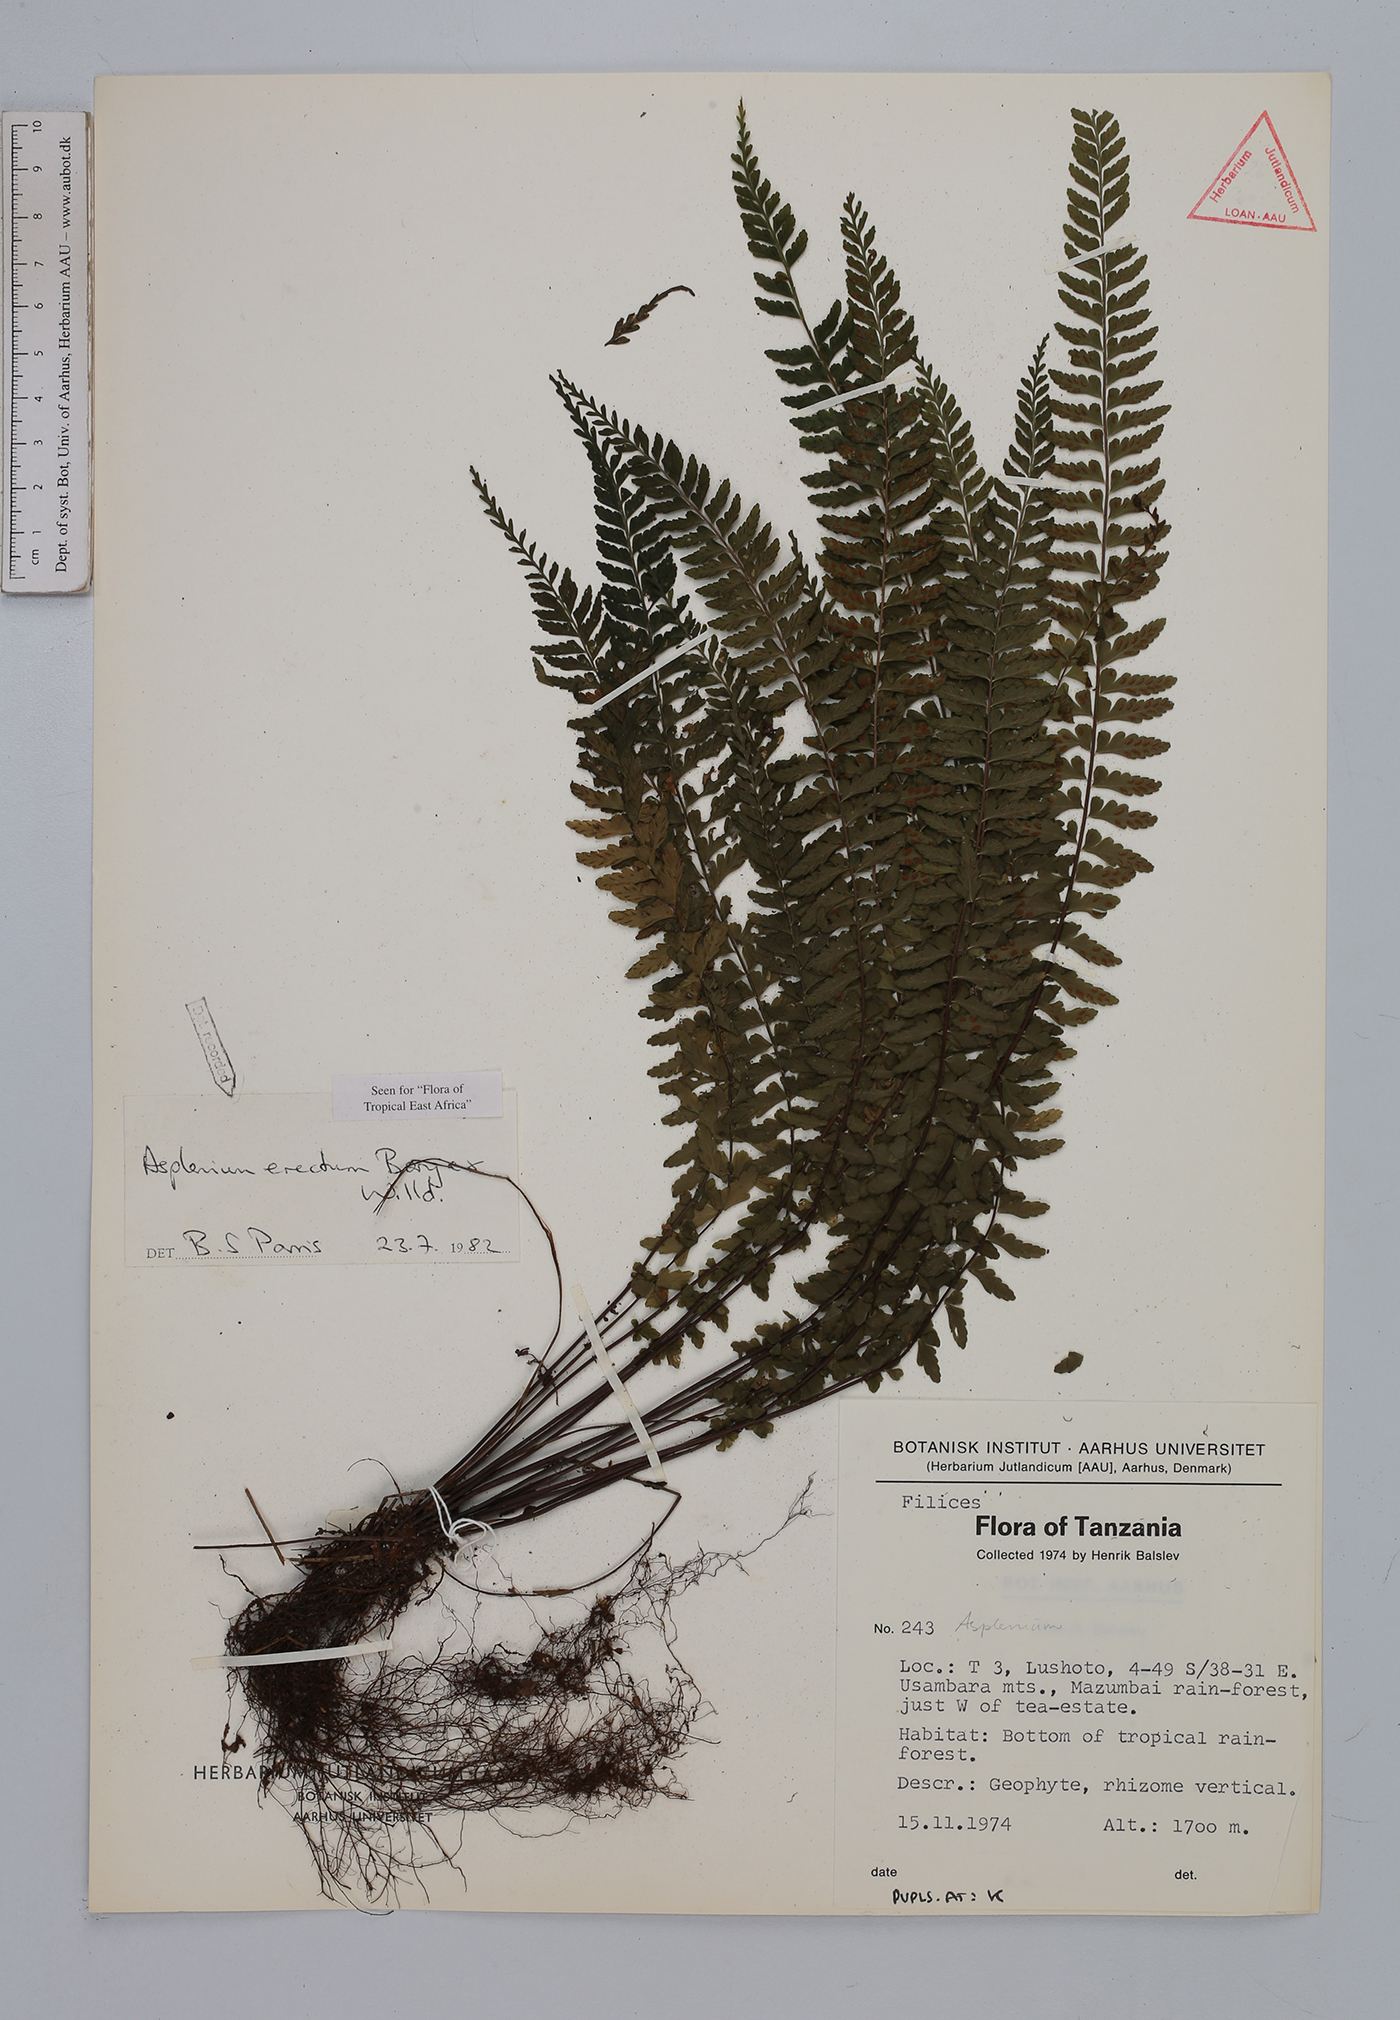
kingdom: Plantae
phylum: Tracheophyta
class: Polypodiopsida
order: Polypodiales
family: Aspleniaceae
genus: Asplenium
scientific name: Asplenium erectum
